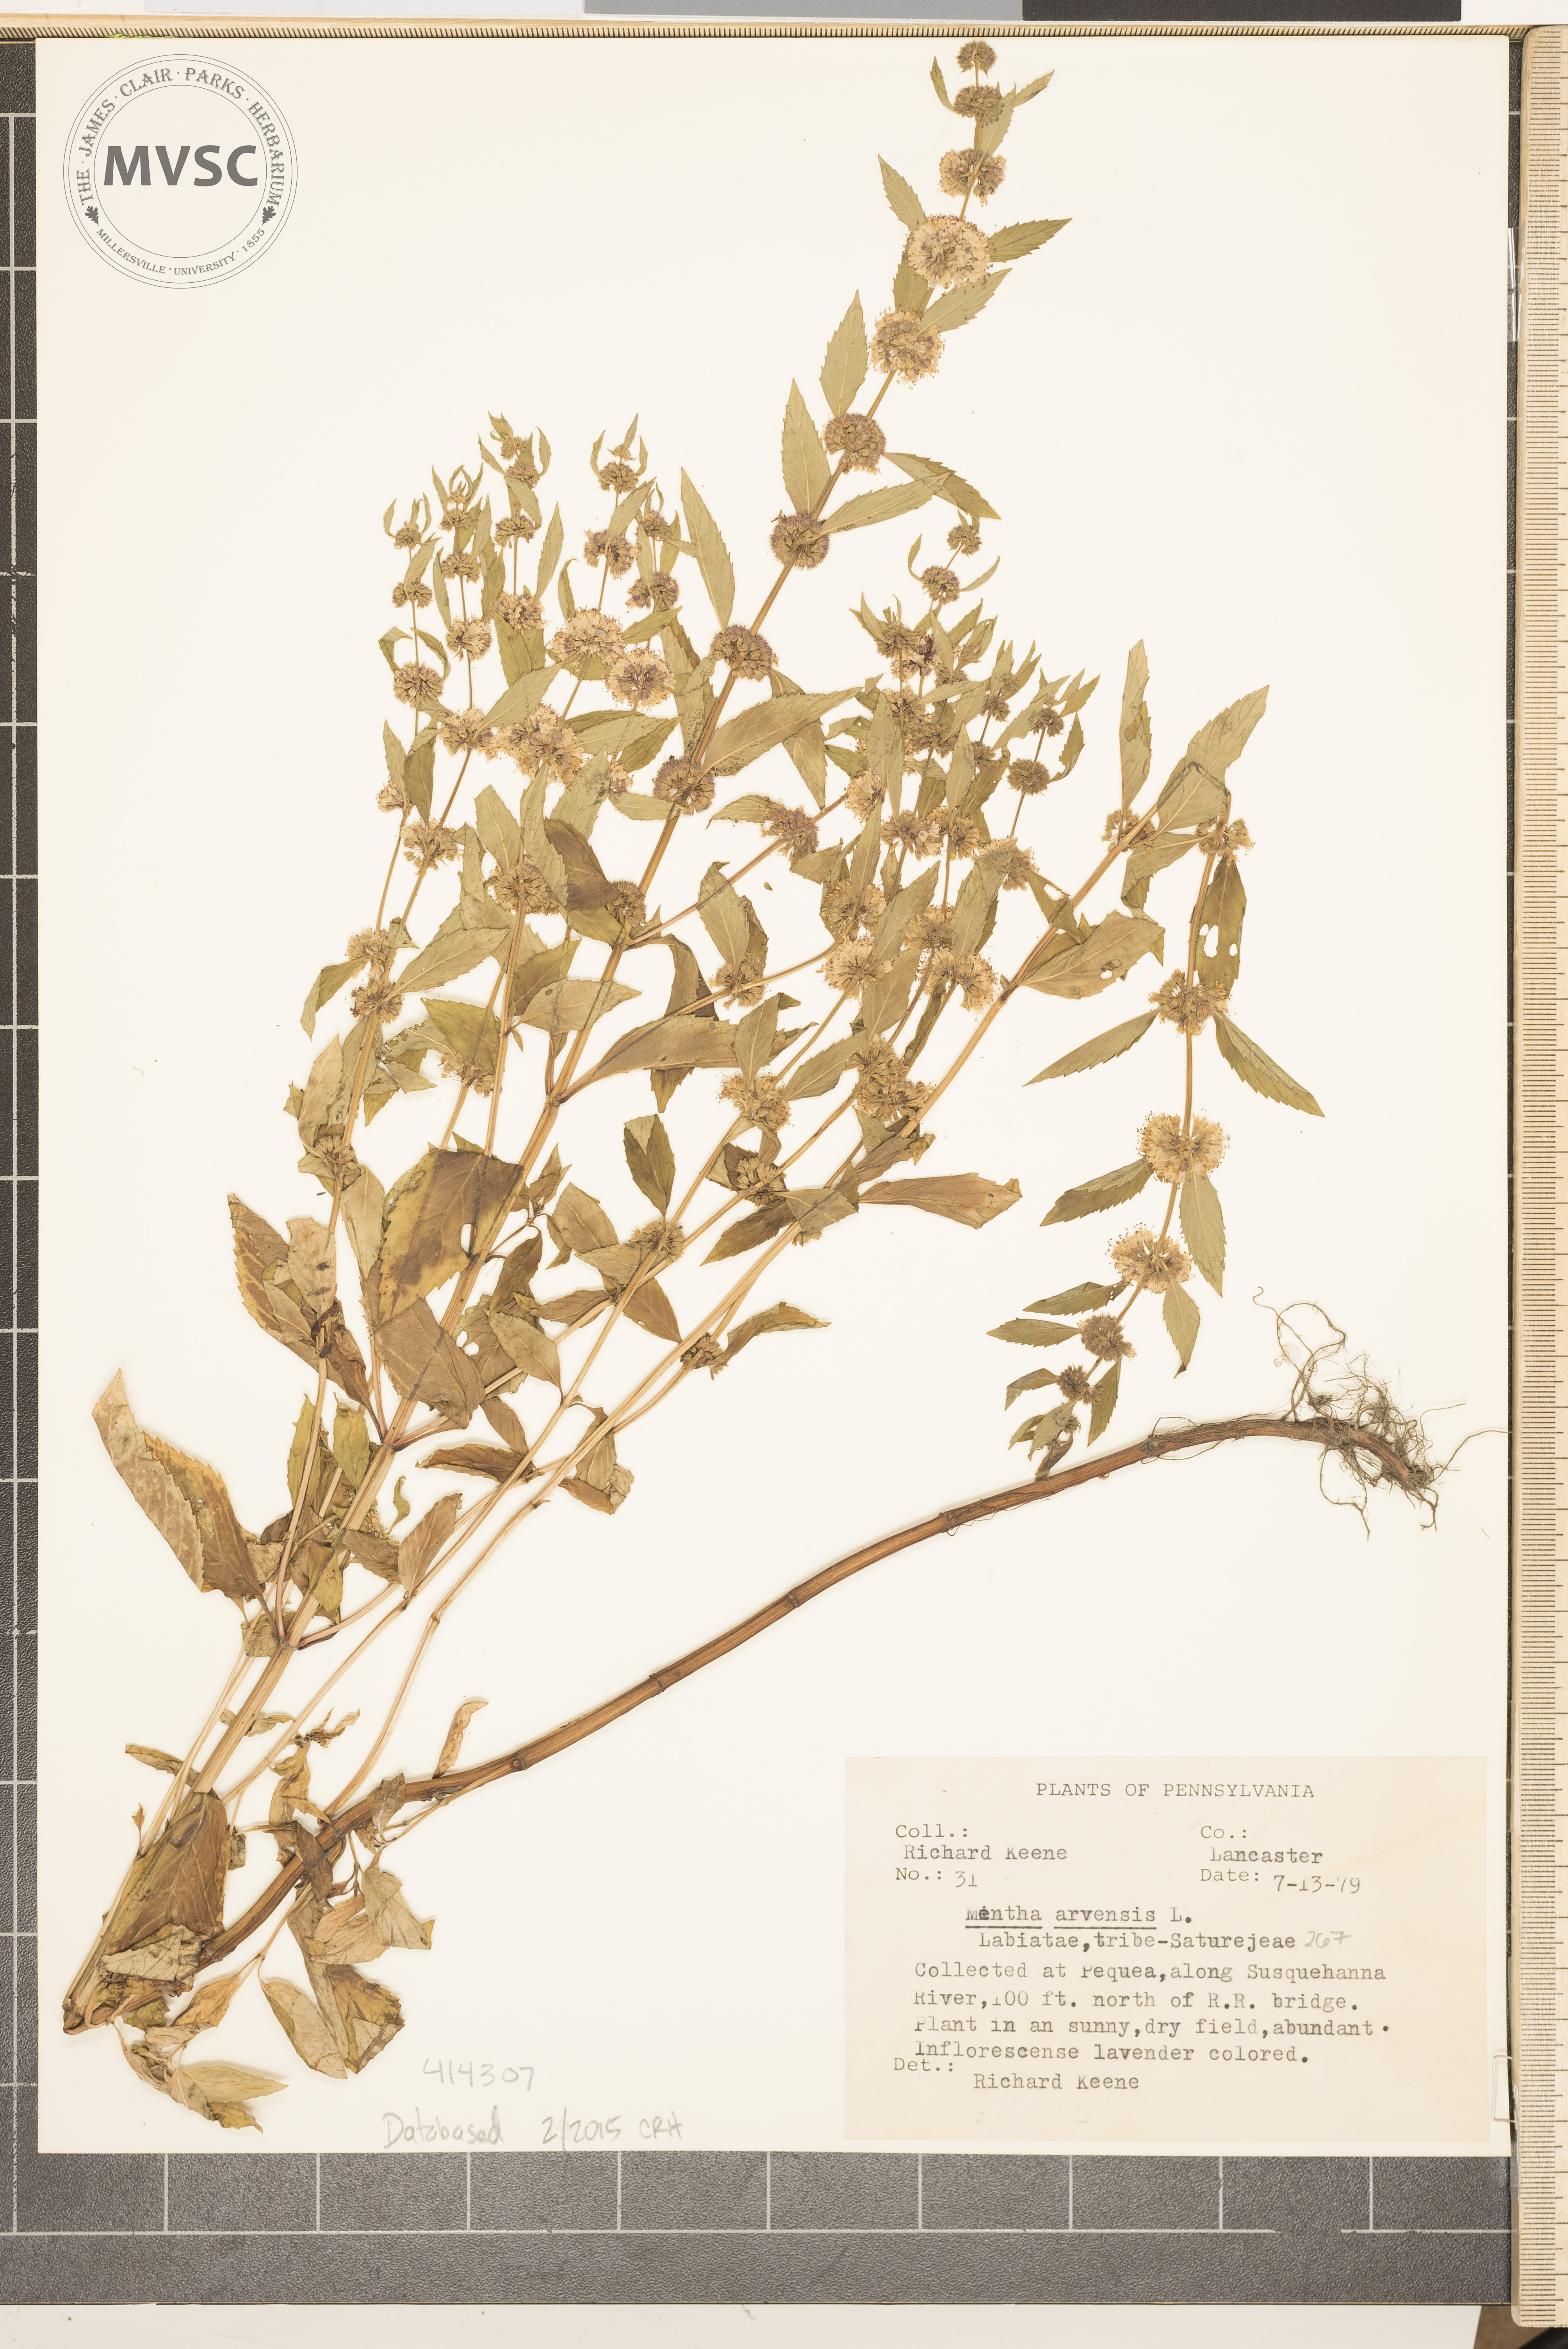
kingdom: Plantae
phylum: Tracheophyta
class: Magnoliopsida
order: Lamiales
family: Lamiaceae
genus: Mentha
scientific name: Mentha arvensis
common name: Field mint
